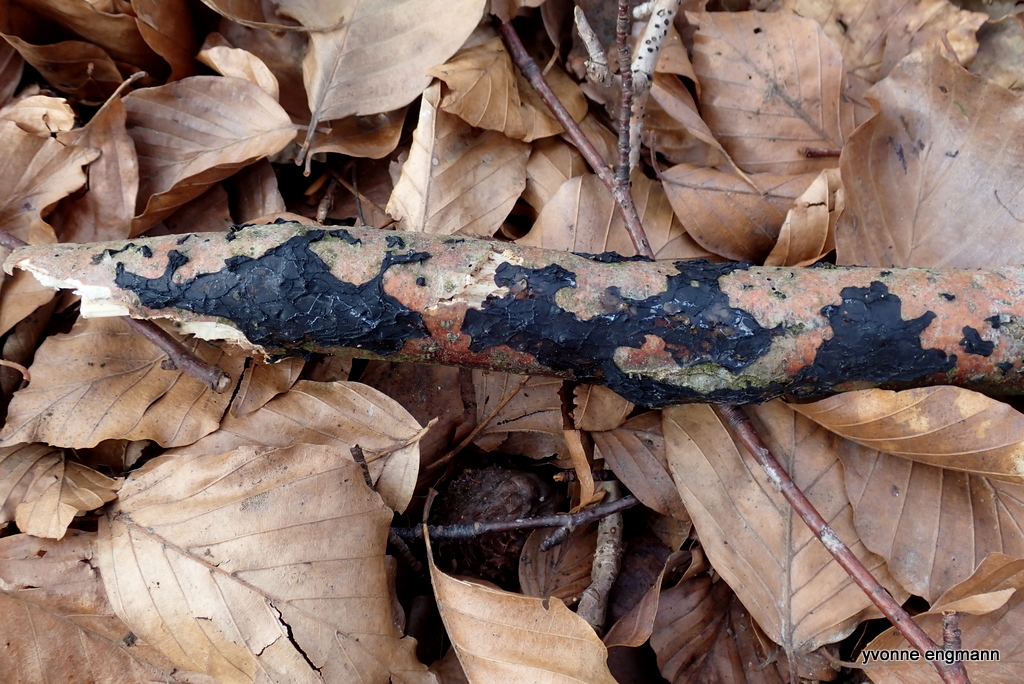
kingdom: Fungi
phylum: Basidiomycota
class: Agaricomycetes
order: Auriculariales
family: Auriculariaceae
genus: Exidia
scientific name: Exidia nigricans
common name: almindelig bævretop
